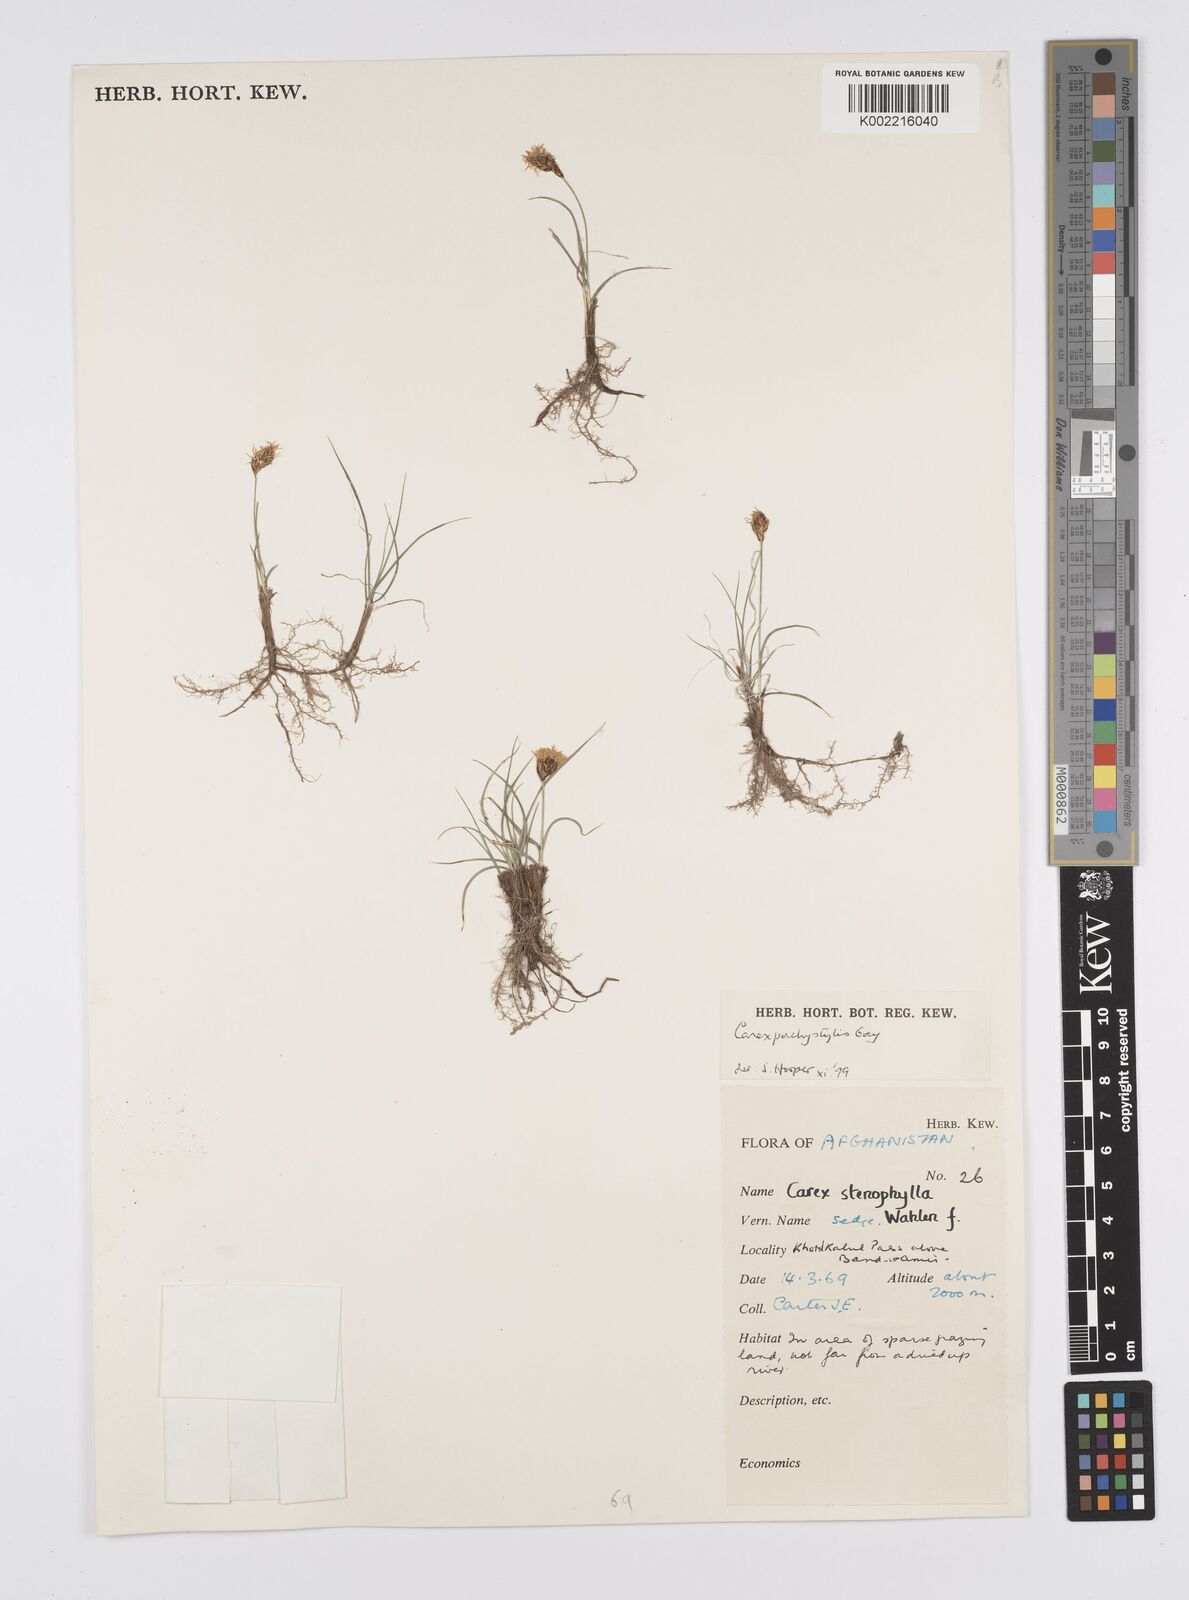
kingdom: Plantae
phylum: Tracheophyta
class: Liliopsida
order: Poales
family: Cyperaceae
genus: Carex
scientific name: Carex pachystylis
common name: Thick-stem sedge
